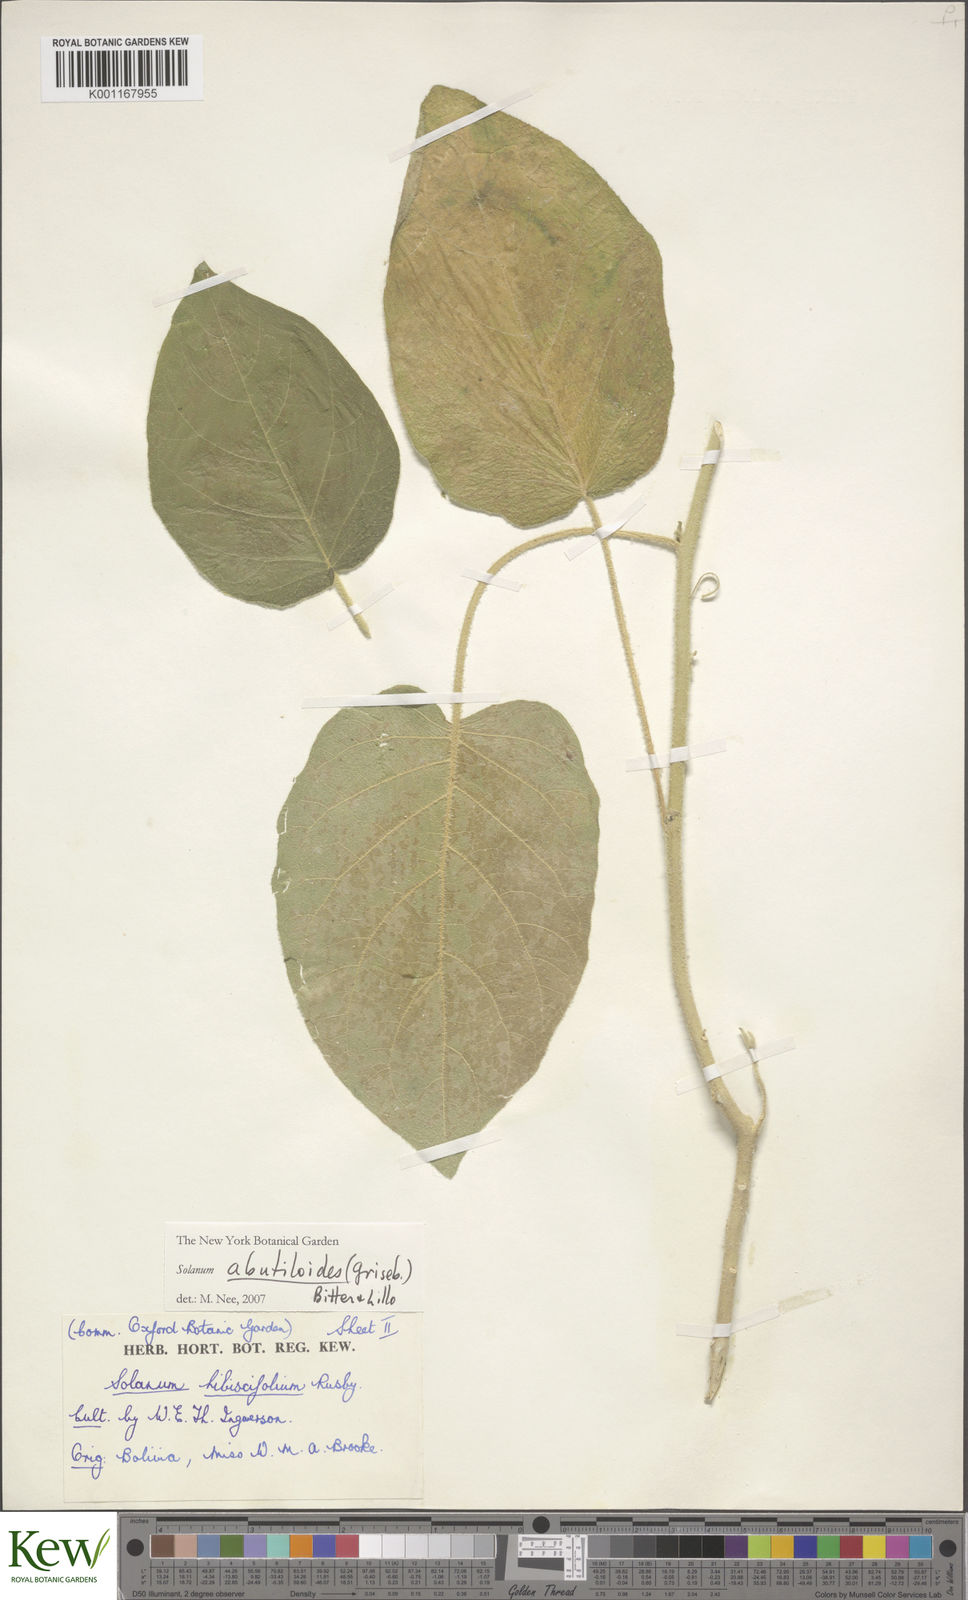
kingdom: Plantae
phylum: Tracheophyta
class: Magnoliopsida
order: Solanales
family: Solanaceae
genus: Solanum
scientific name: Solanum abutiloides
